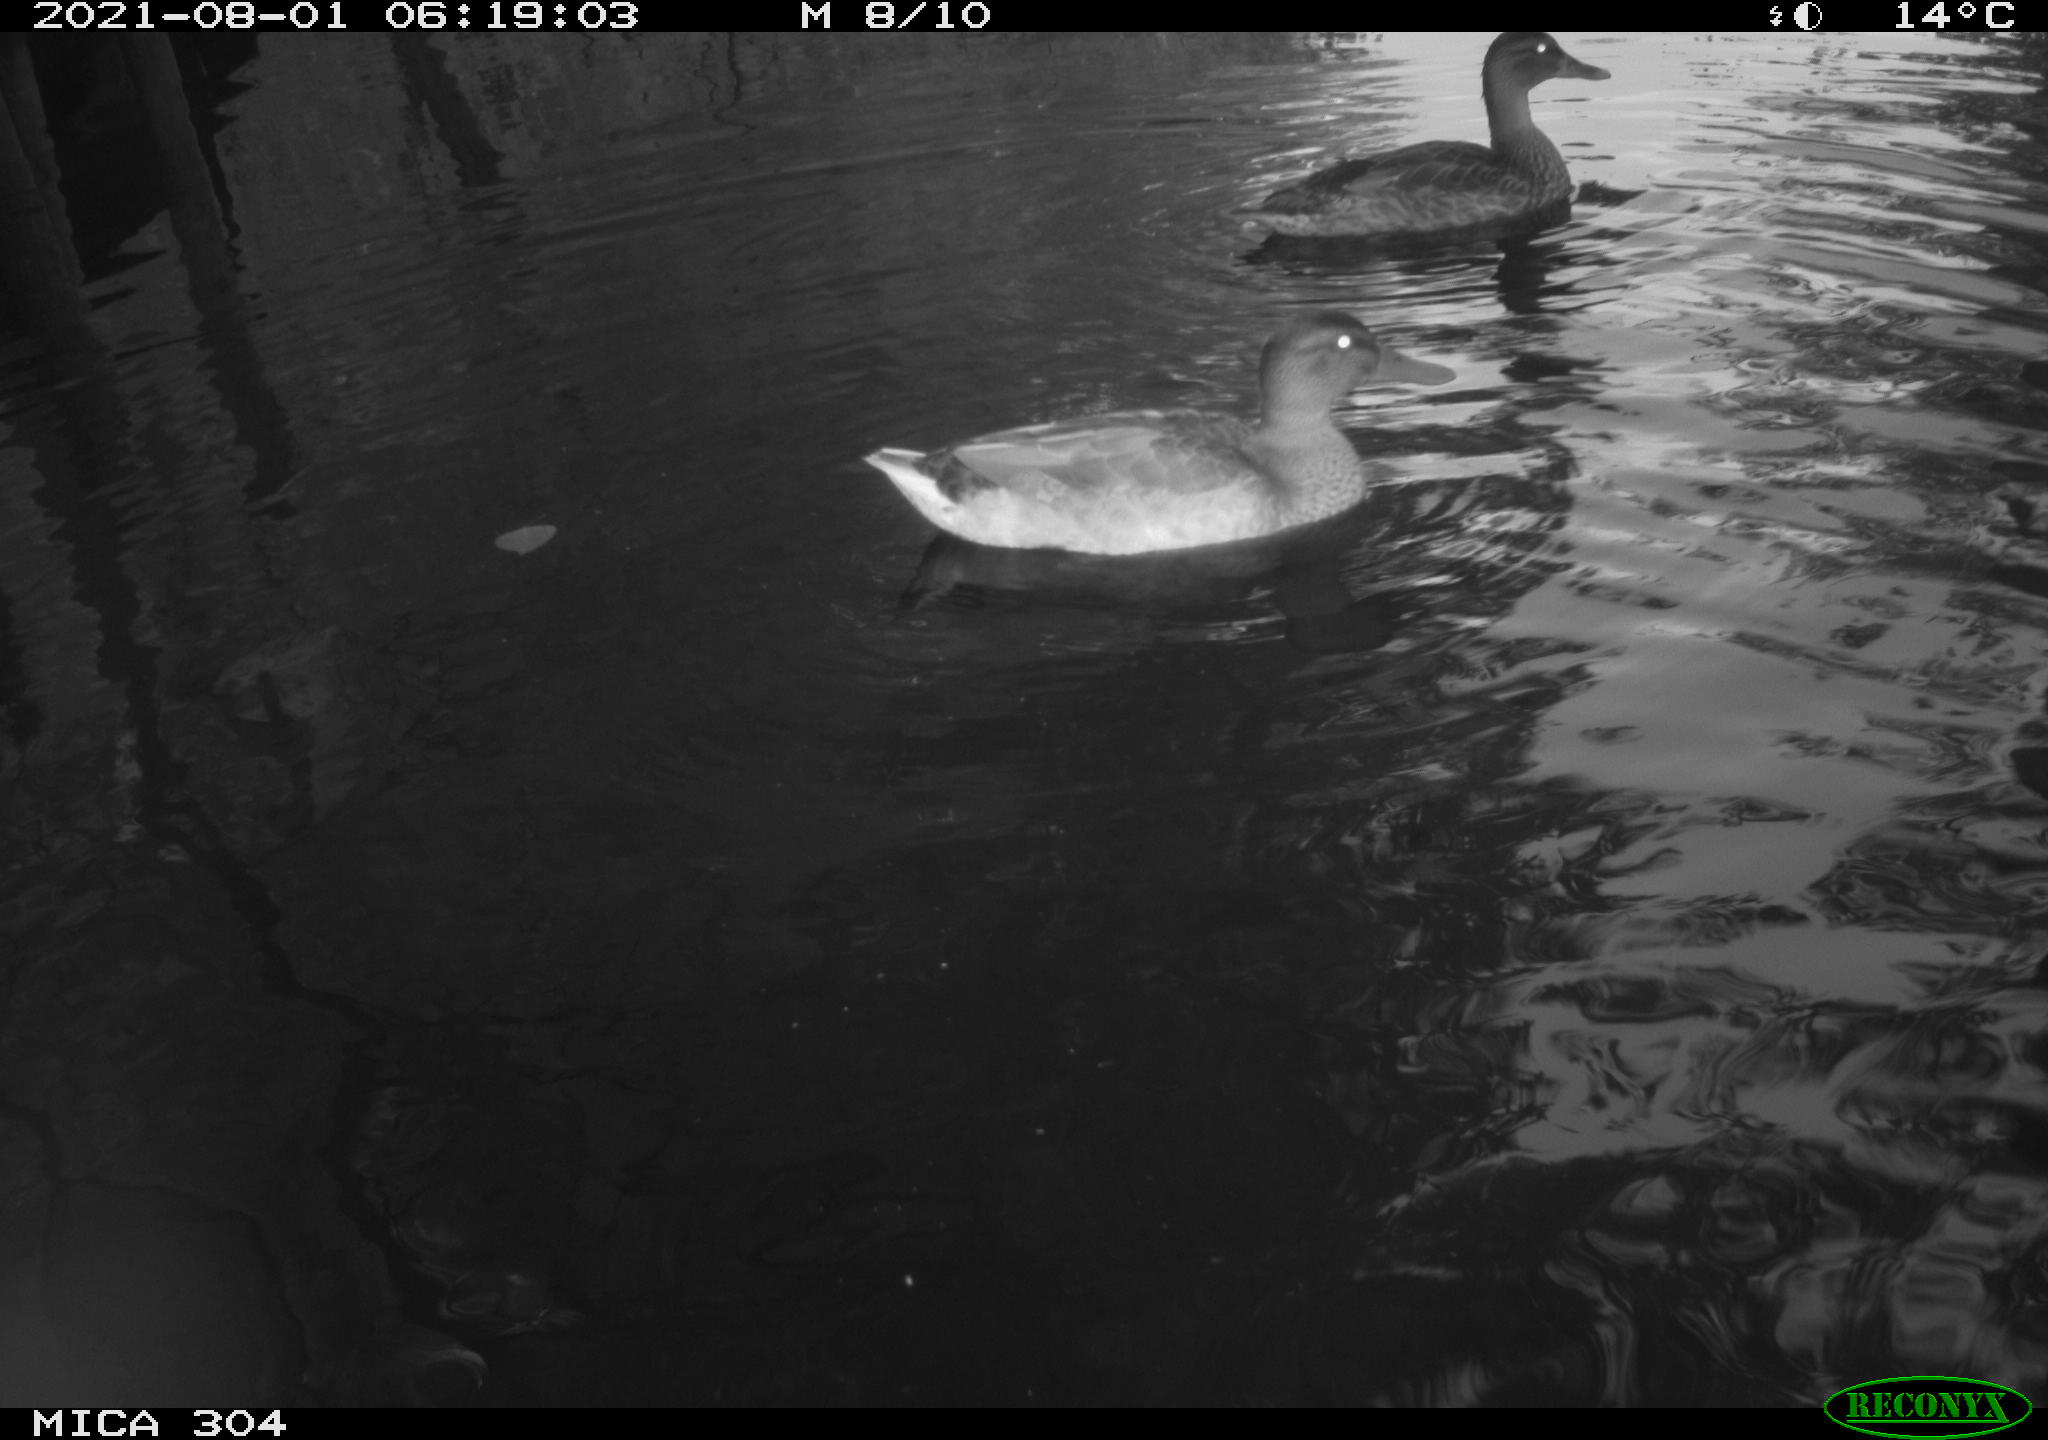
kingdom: Animalia
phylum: Chordata
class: Aves
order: Anseriformes
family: Anatidae
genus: Mareca
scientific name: Mareca strepera
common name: Gadwall
